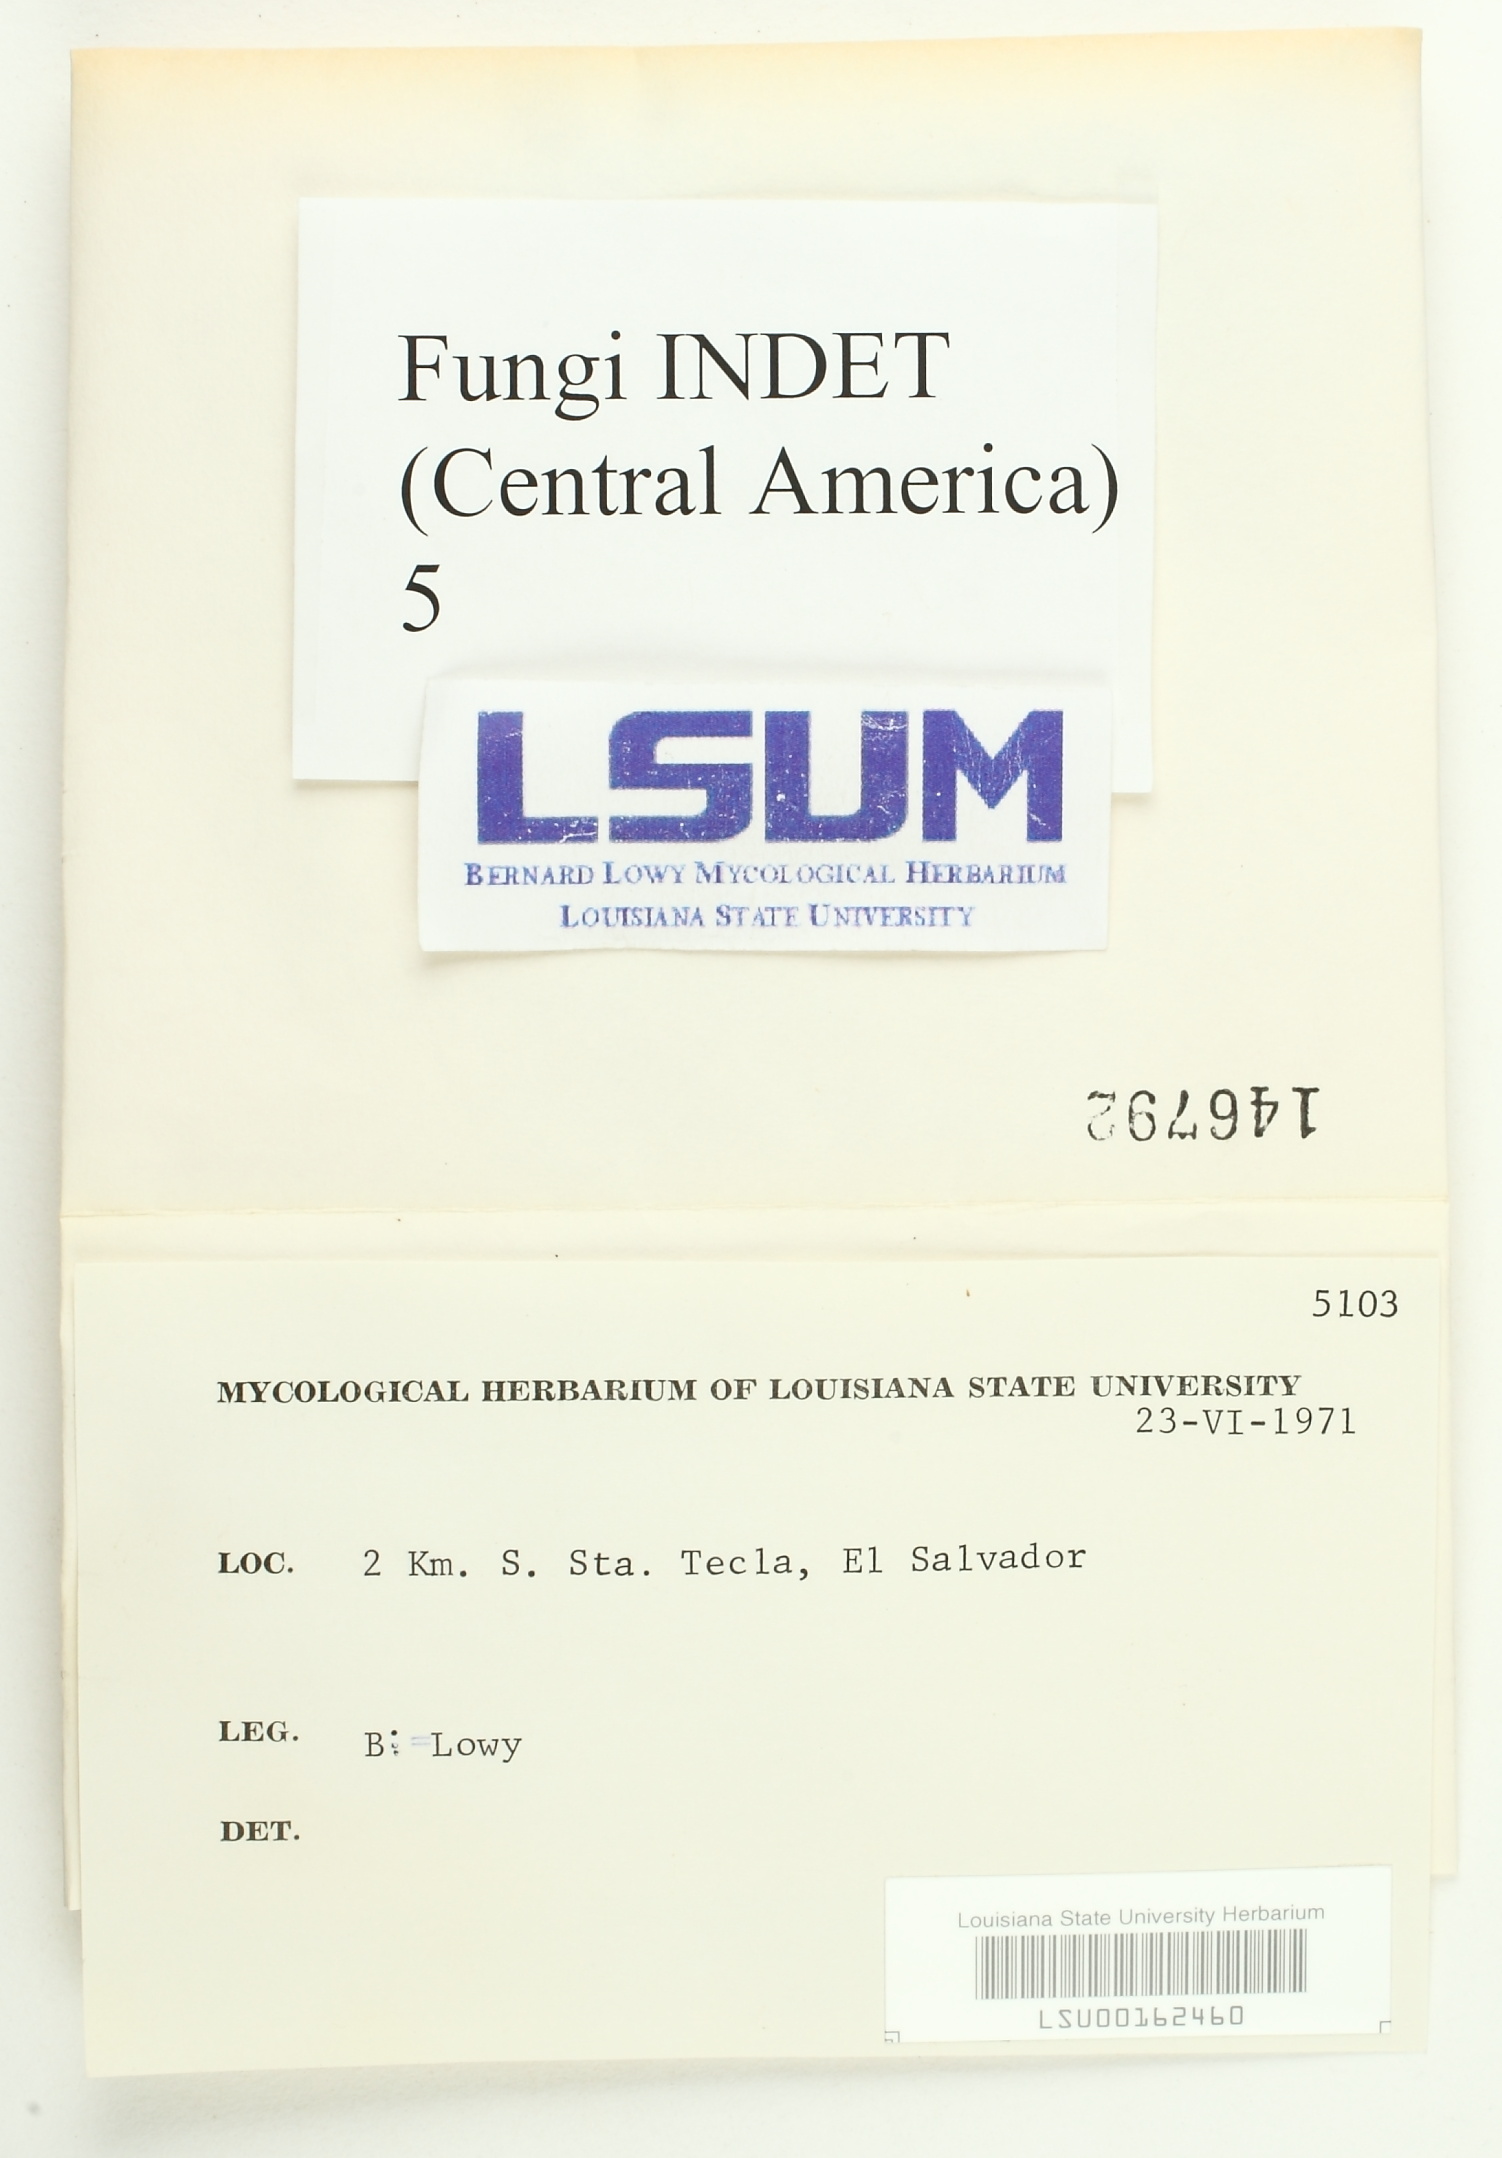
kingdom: Fungi
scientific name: Fungi
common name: Fungi
